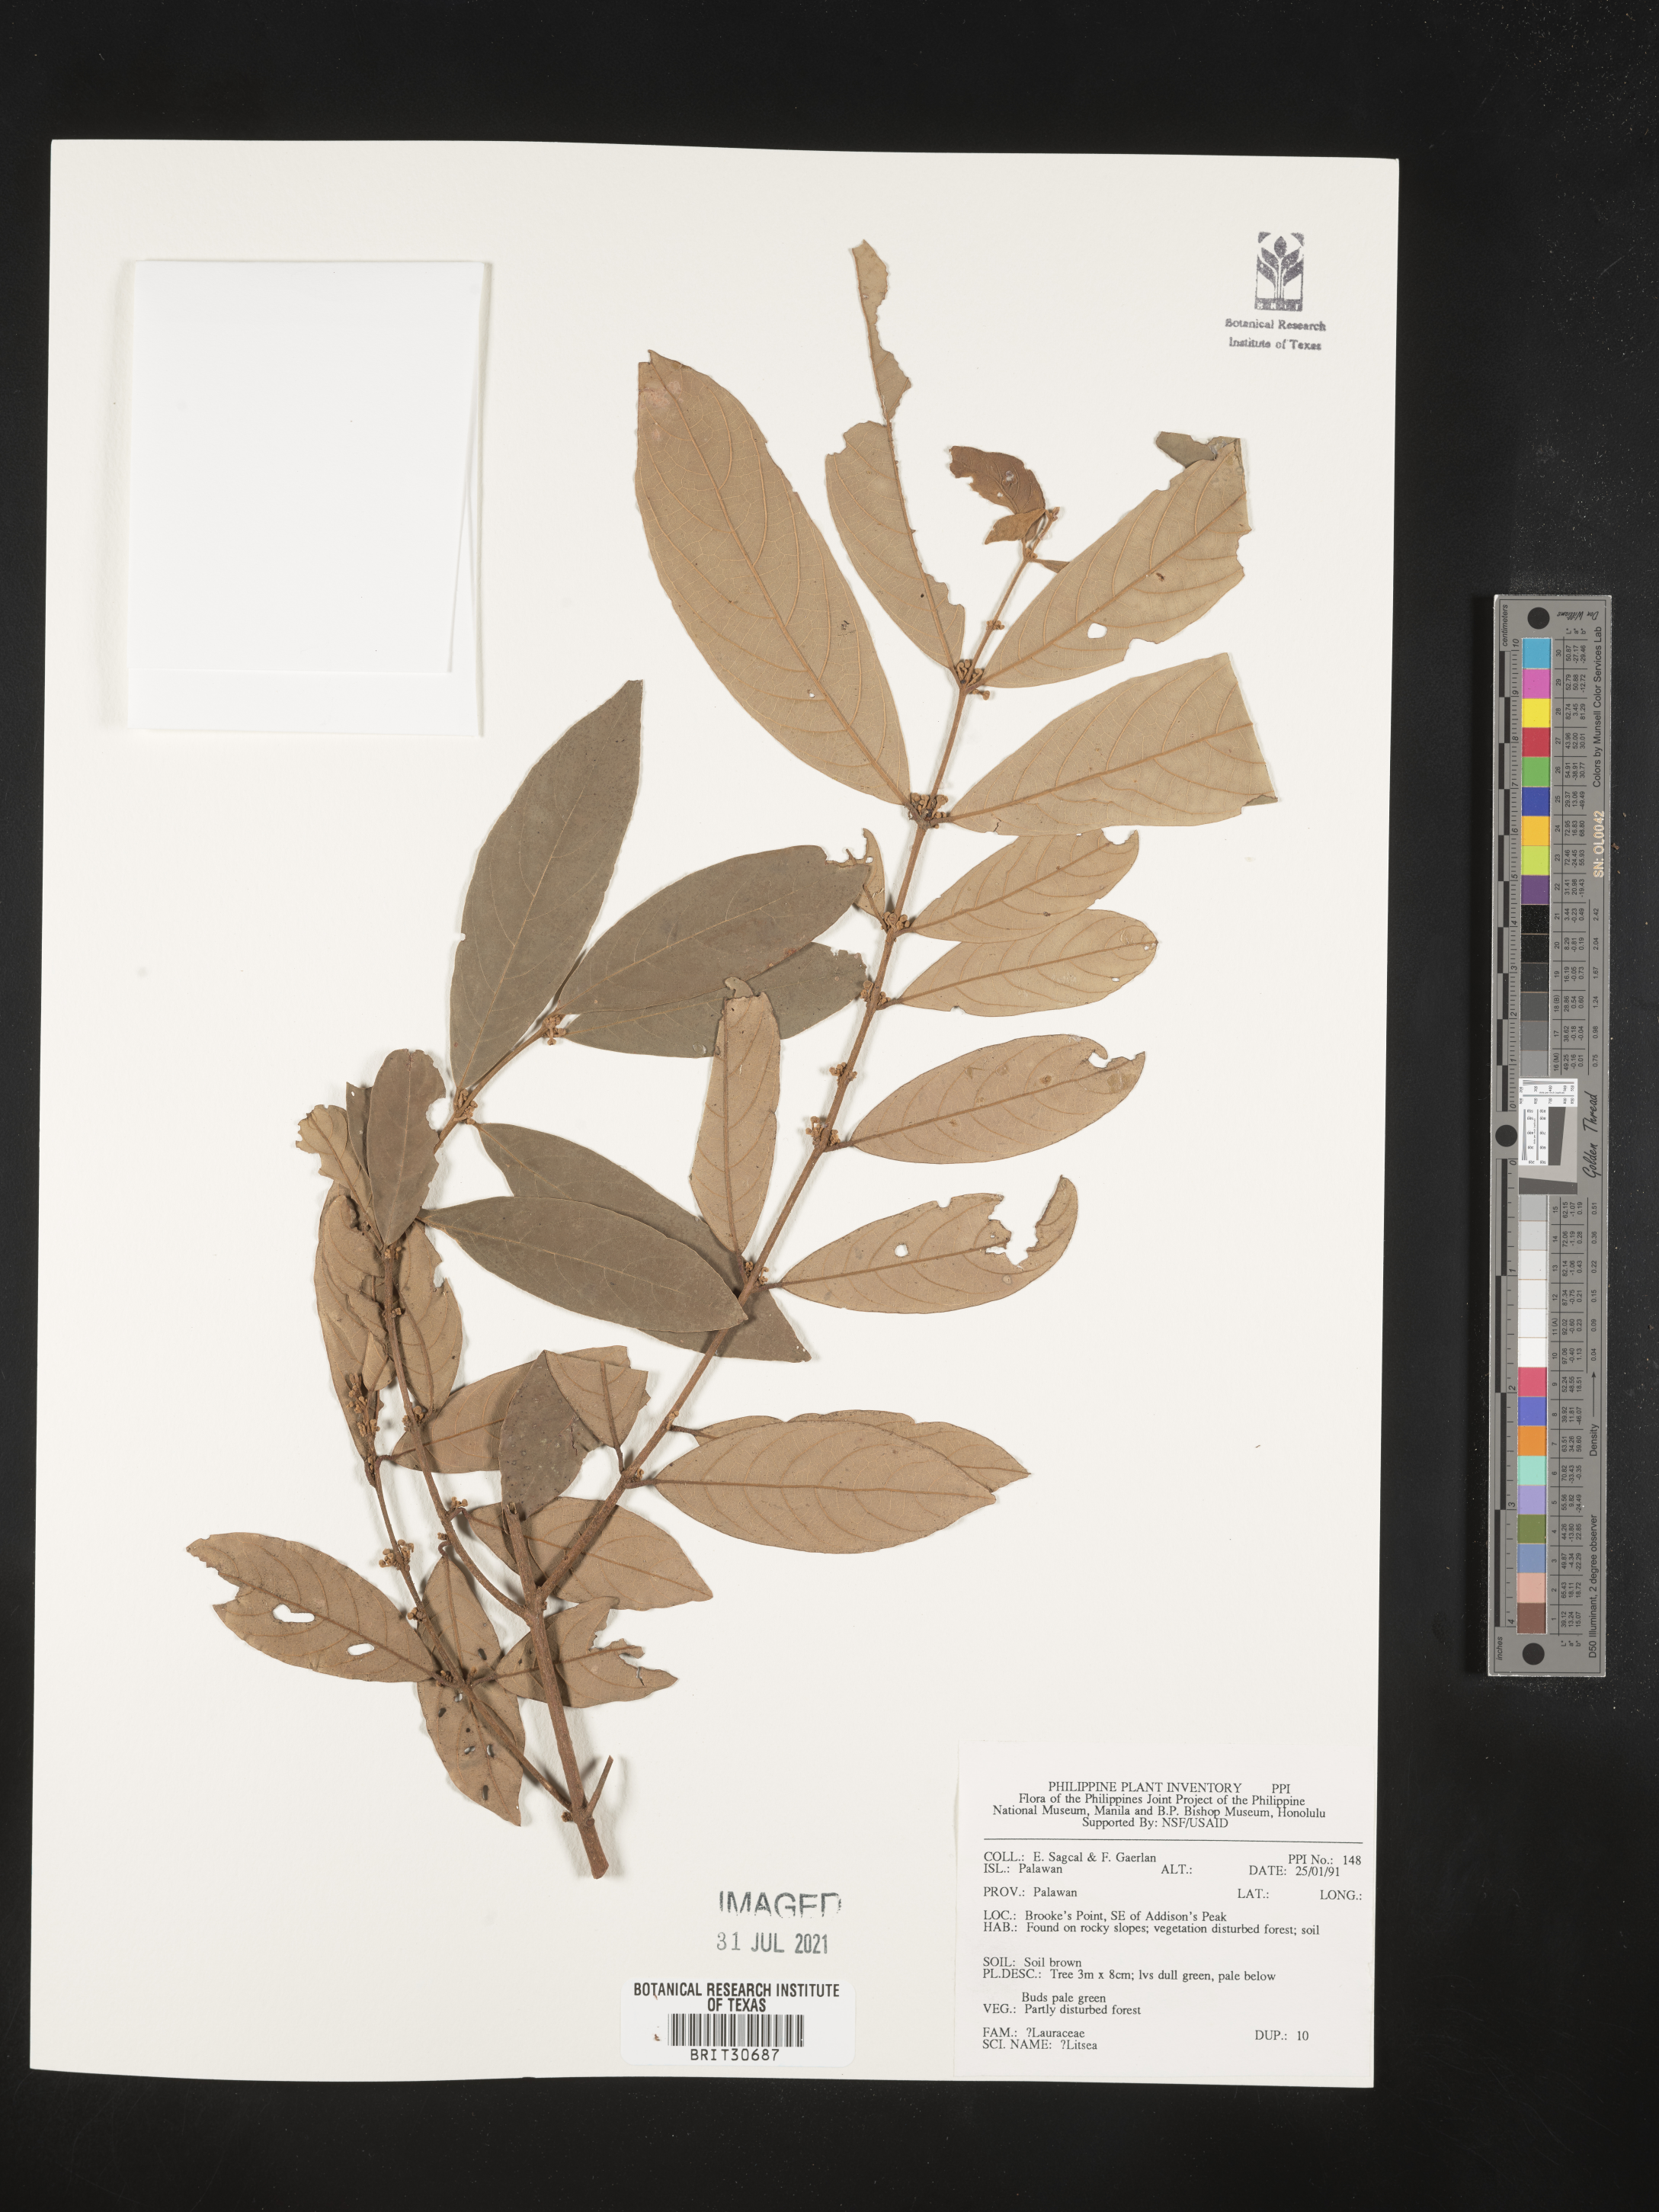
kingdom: Plantae
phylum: Tracheophyta
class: Magnoliopsida
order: Laurales
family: Lauraceae
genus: Litsea
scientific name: Litsea
